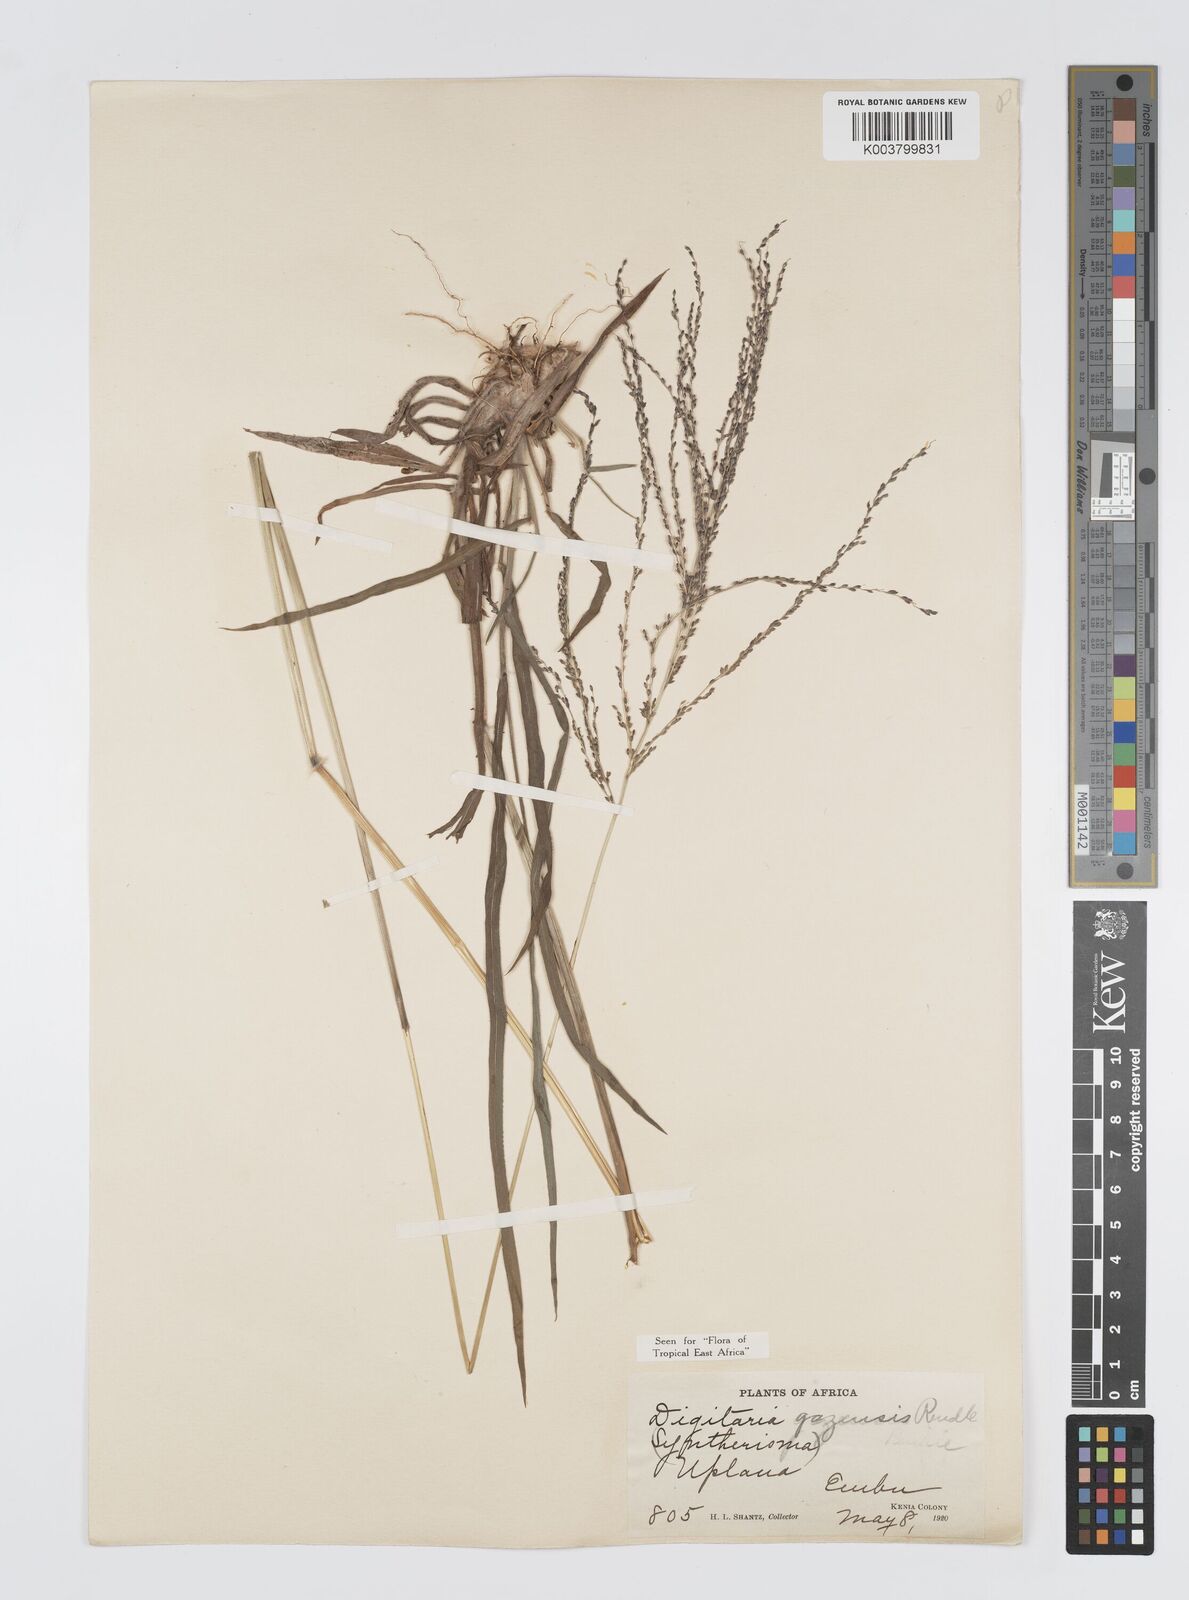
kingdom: Plantae
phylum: Tracheophyta
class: Liliopsida
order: Poales
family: Poaceae
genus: Digitaria
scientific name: Digitaria gazensis
